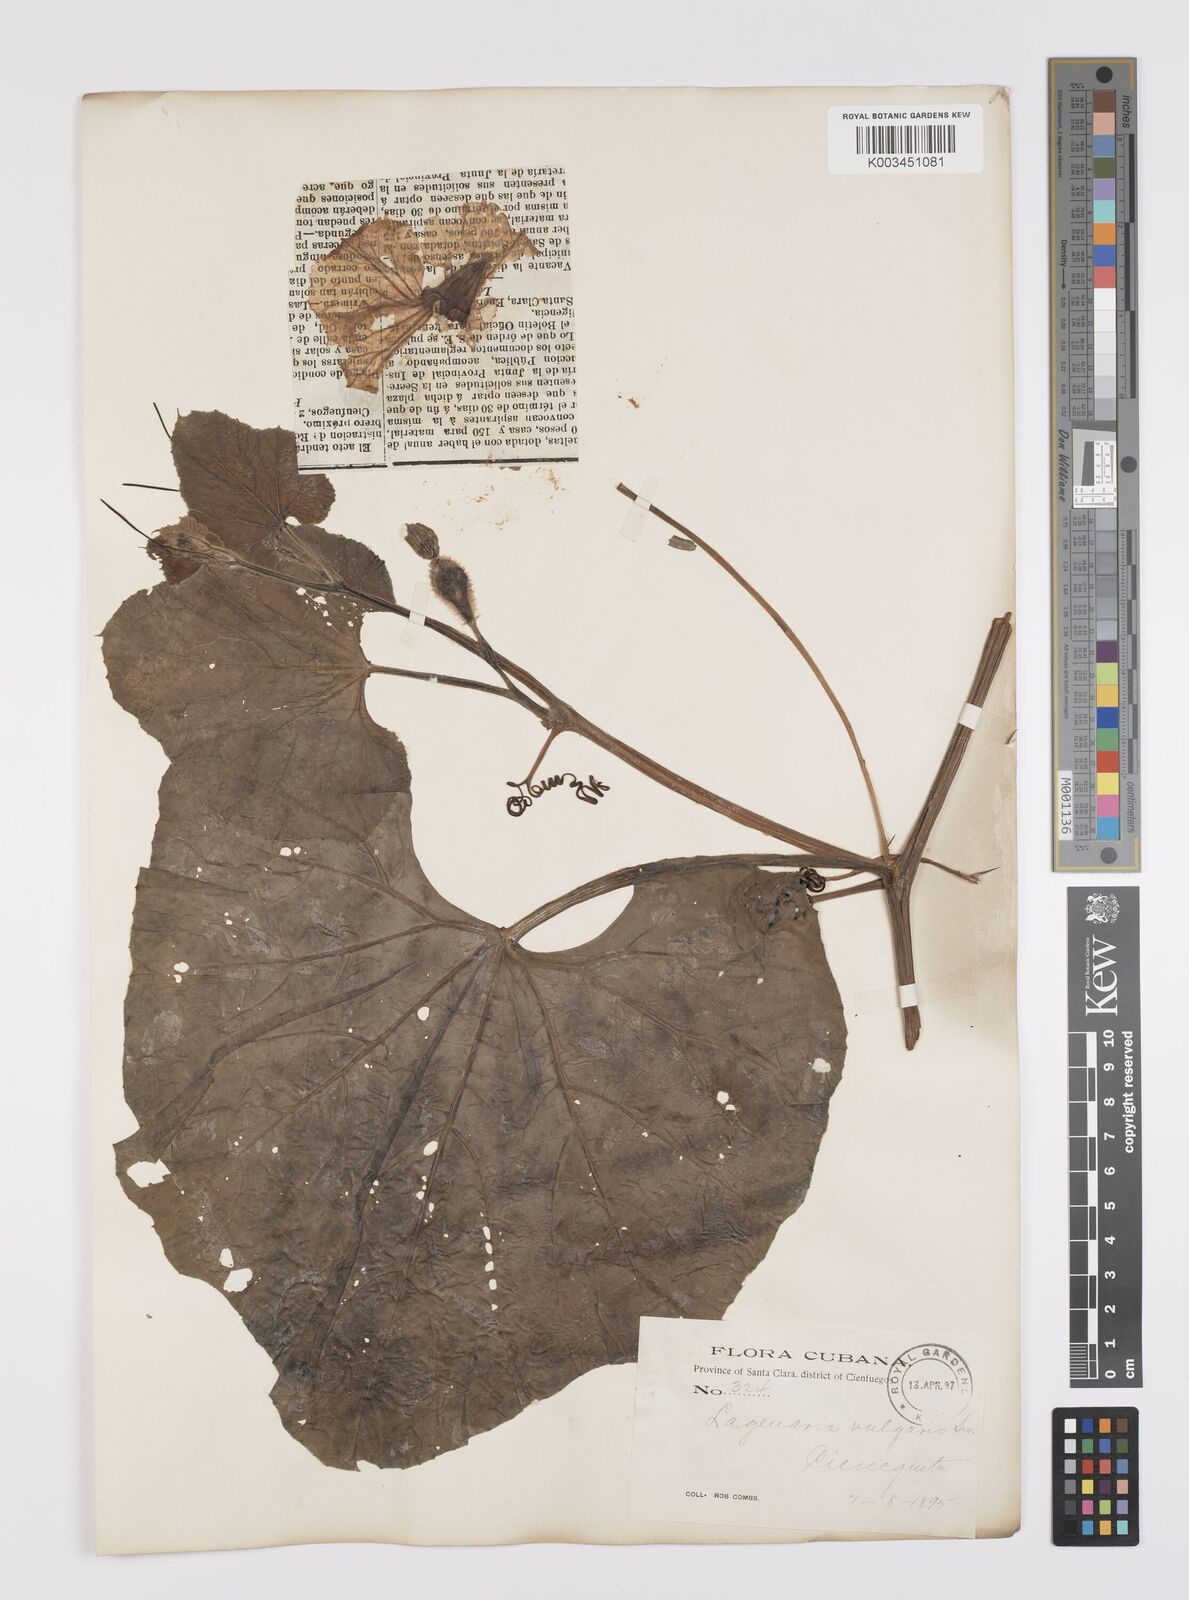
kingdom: Plantae
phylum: Tracheophyta
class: Magnoliopsida
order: Cucurbitales
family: Cucurbitaceae
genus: Lagenaria
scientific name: Lagenaria siceraria
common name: Bottle gourd
